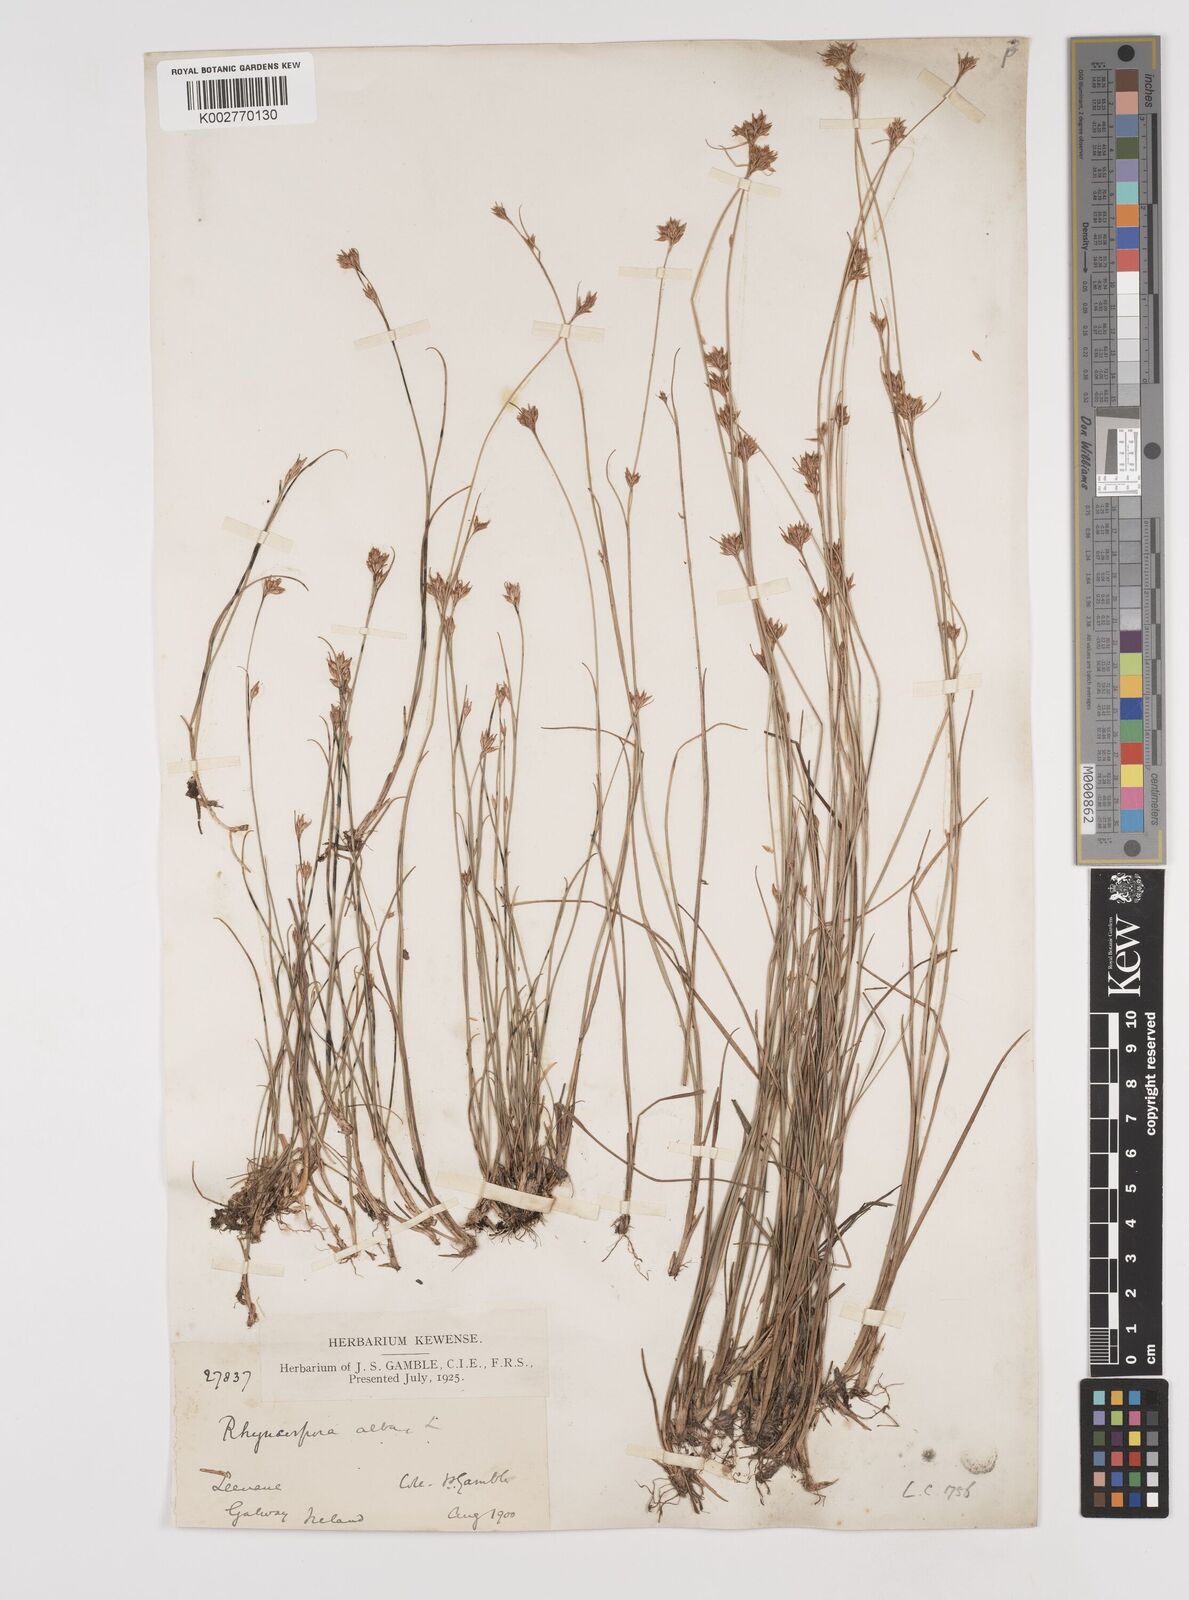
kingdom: Plantae
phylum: Tracheophyta
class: Liliopsida
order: Poales
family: Cyperaceae
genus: Rhynchospora
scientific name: Rhynchospora alba
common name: White beak-sedge
